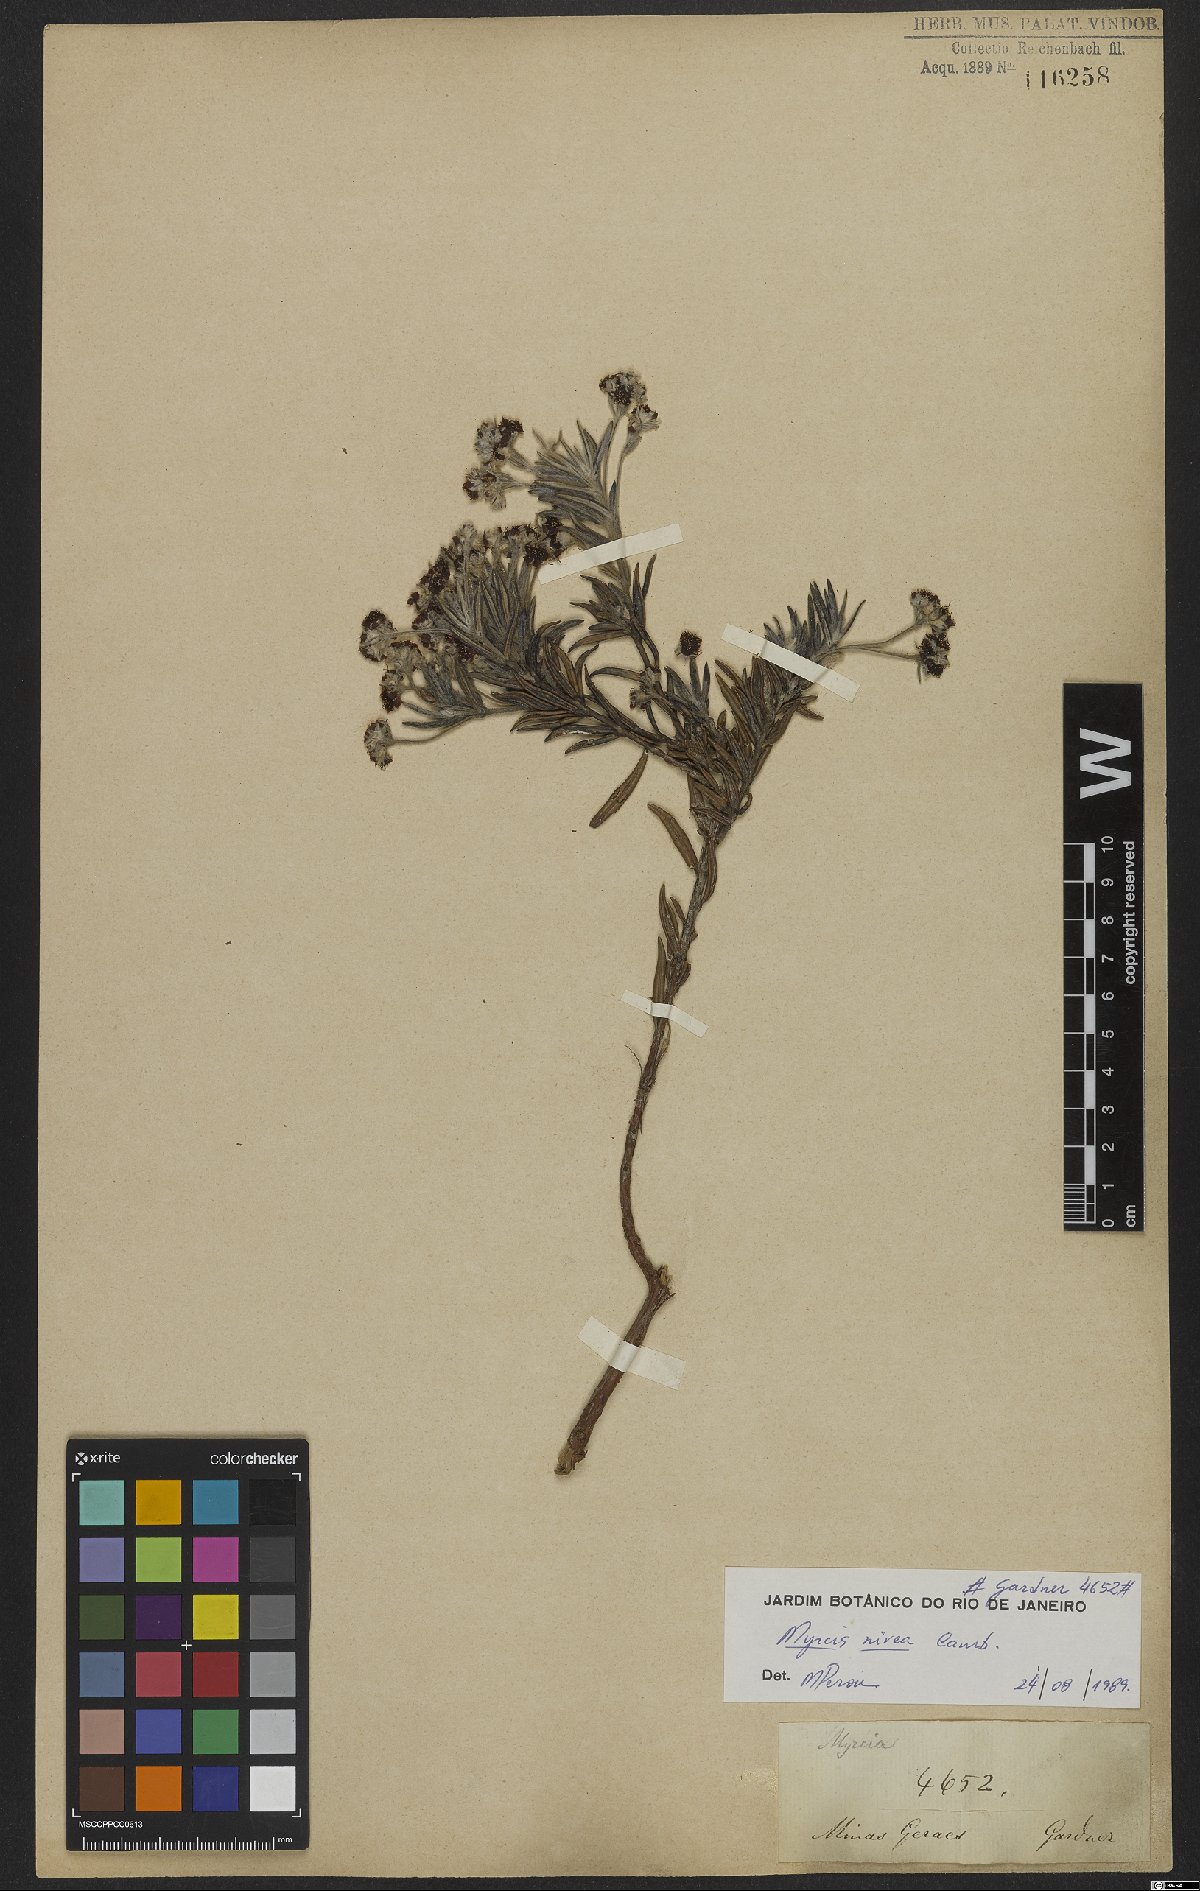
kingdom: Plantae
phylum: Tracheophyta
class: Magnoliopsida
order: Myrtales
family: Myrtaceae
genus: Myrcia
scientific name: Myrcia nivea
